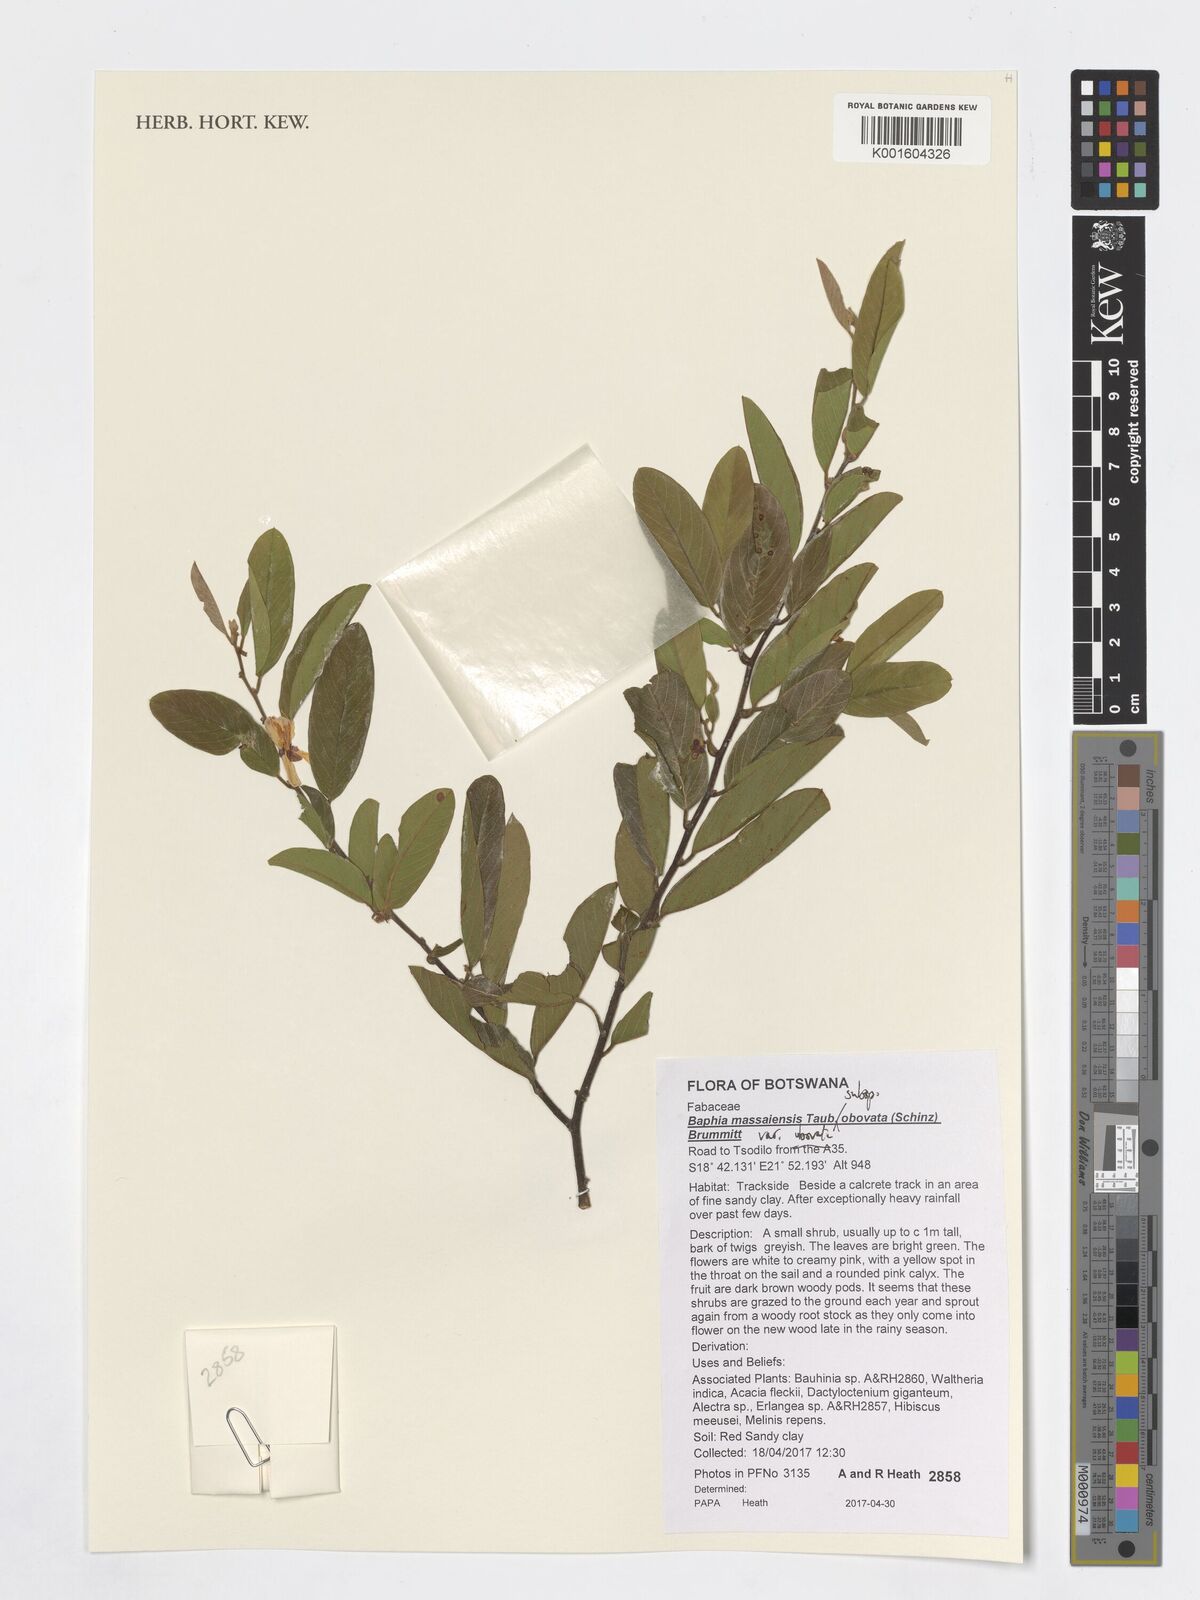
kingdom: Plantae
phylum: Tracheophyta
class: Magnoliopsida
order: Fabales
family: Fabaceae
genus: Baphia
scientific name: Baphia massaiensis
